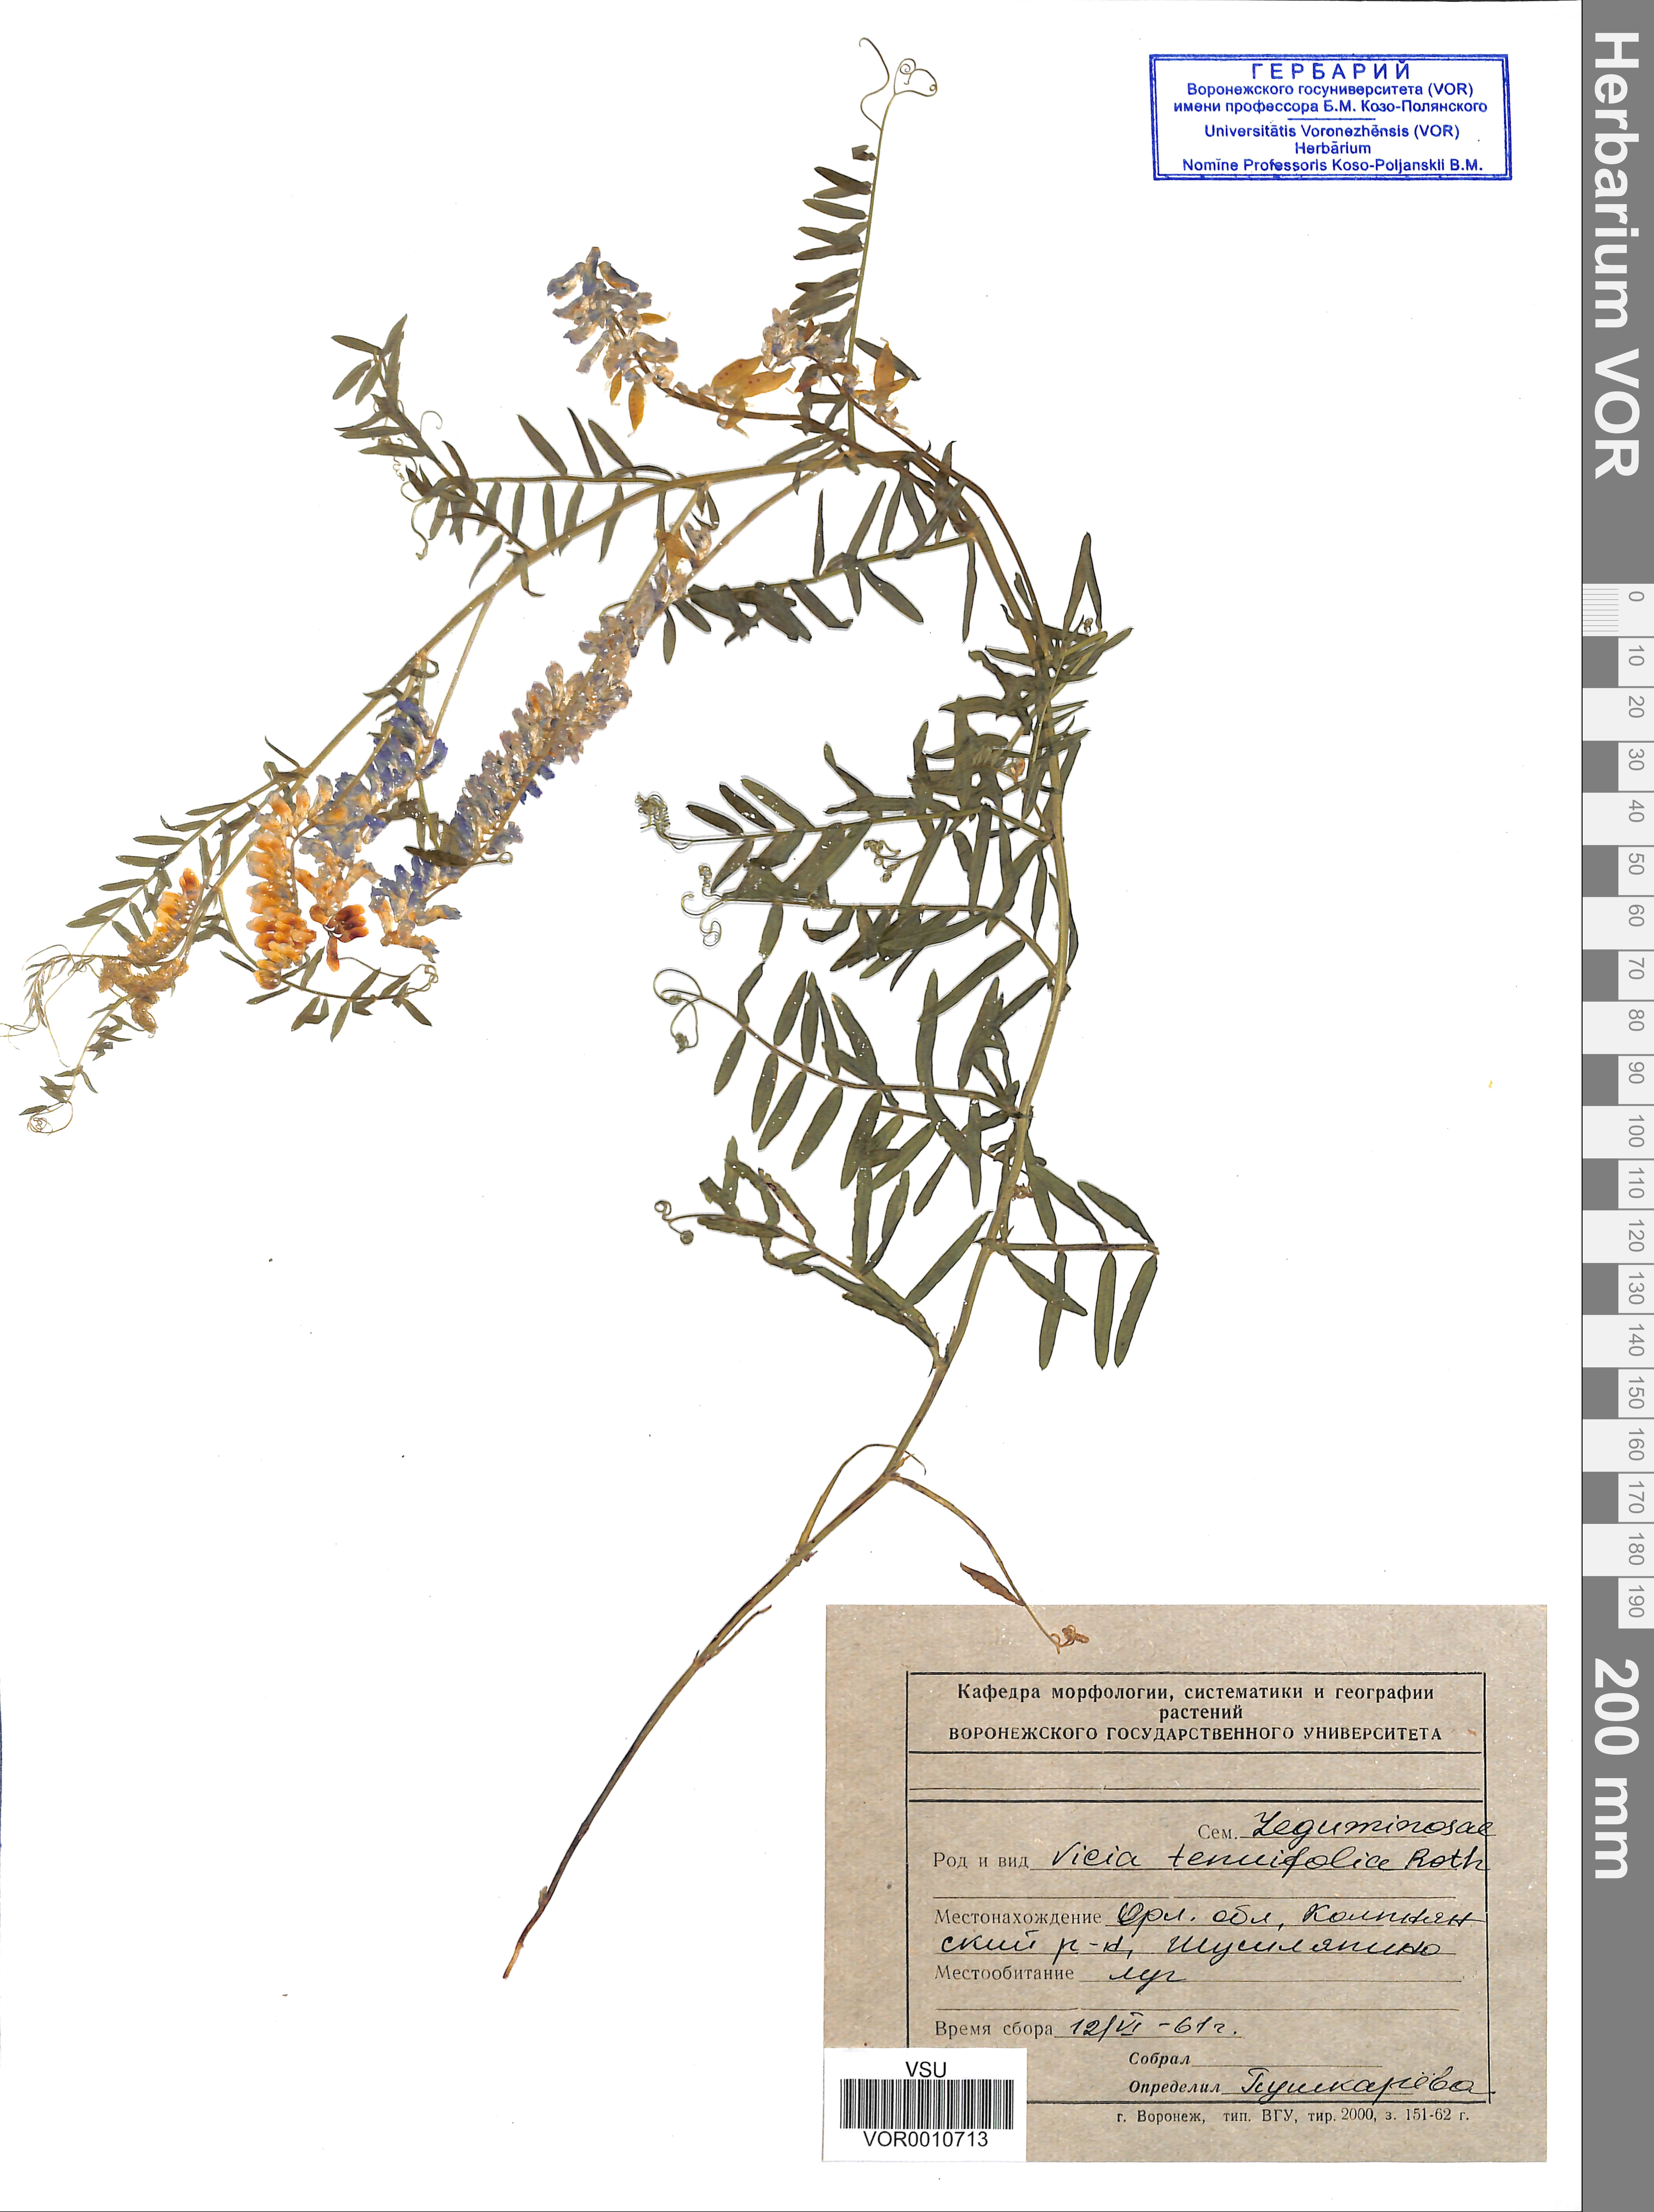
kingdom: Plantae
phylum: Tracheophyta
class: Magnoliopsida
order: Fabales
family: Fabaceae
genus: Vicia
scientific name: Vicia tenuifolia
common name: Fine-leaved vetch
